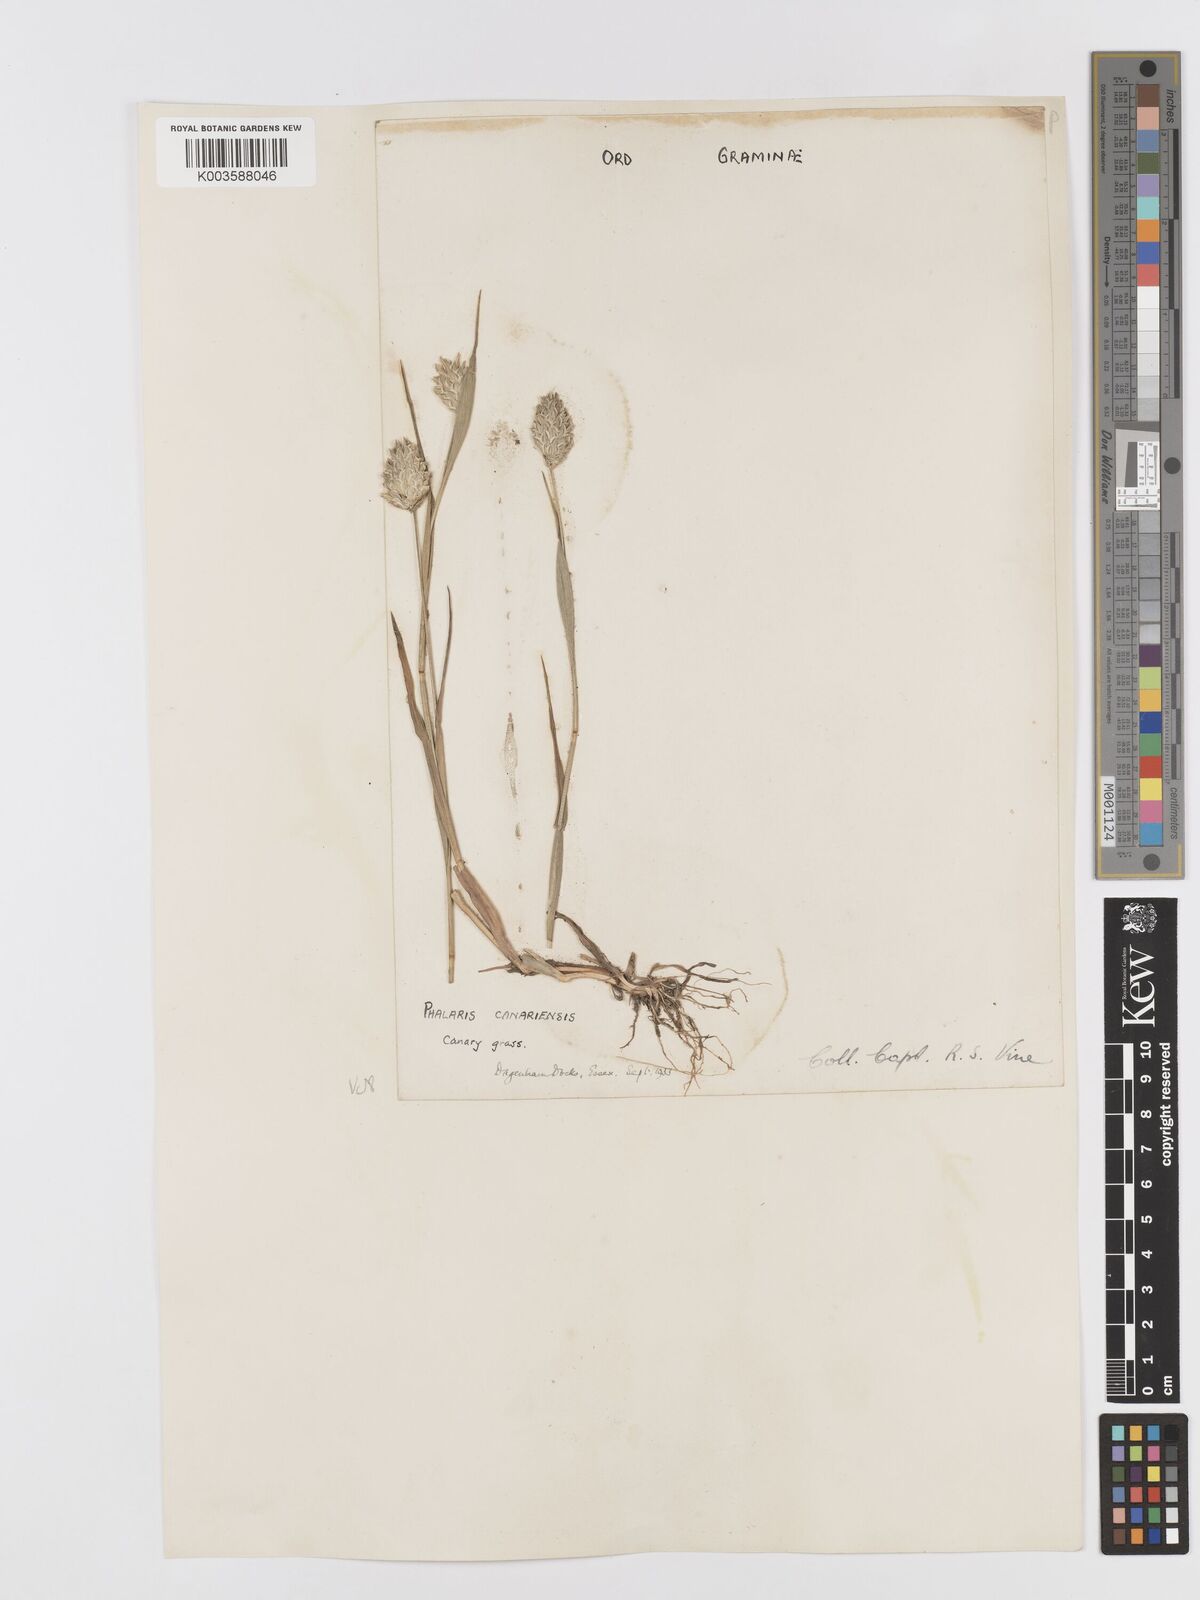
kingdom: Plantae
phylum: Tracheophyta
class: Liliopsida
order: Poales
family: Poaceae
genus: Phalaris
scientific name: Phalaris canariensis
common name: Annual canarygrass
